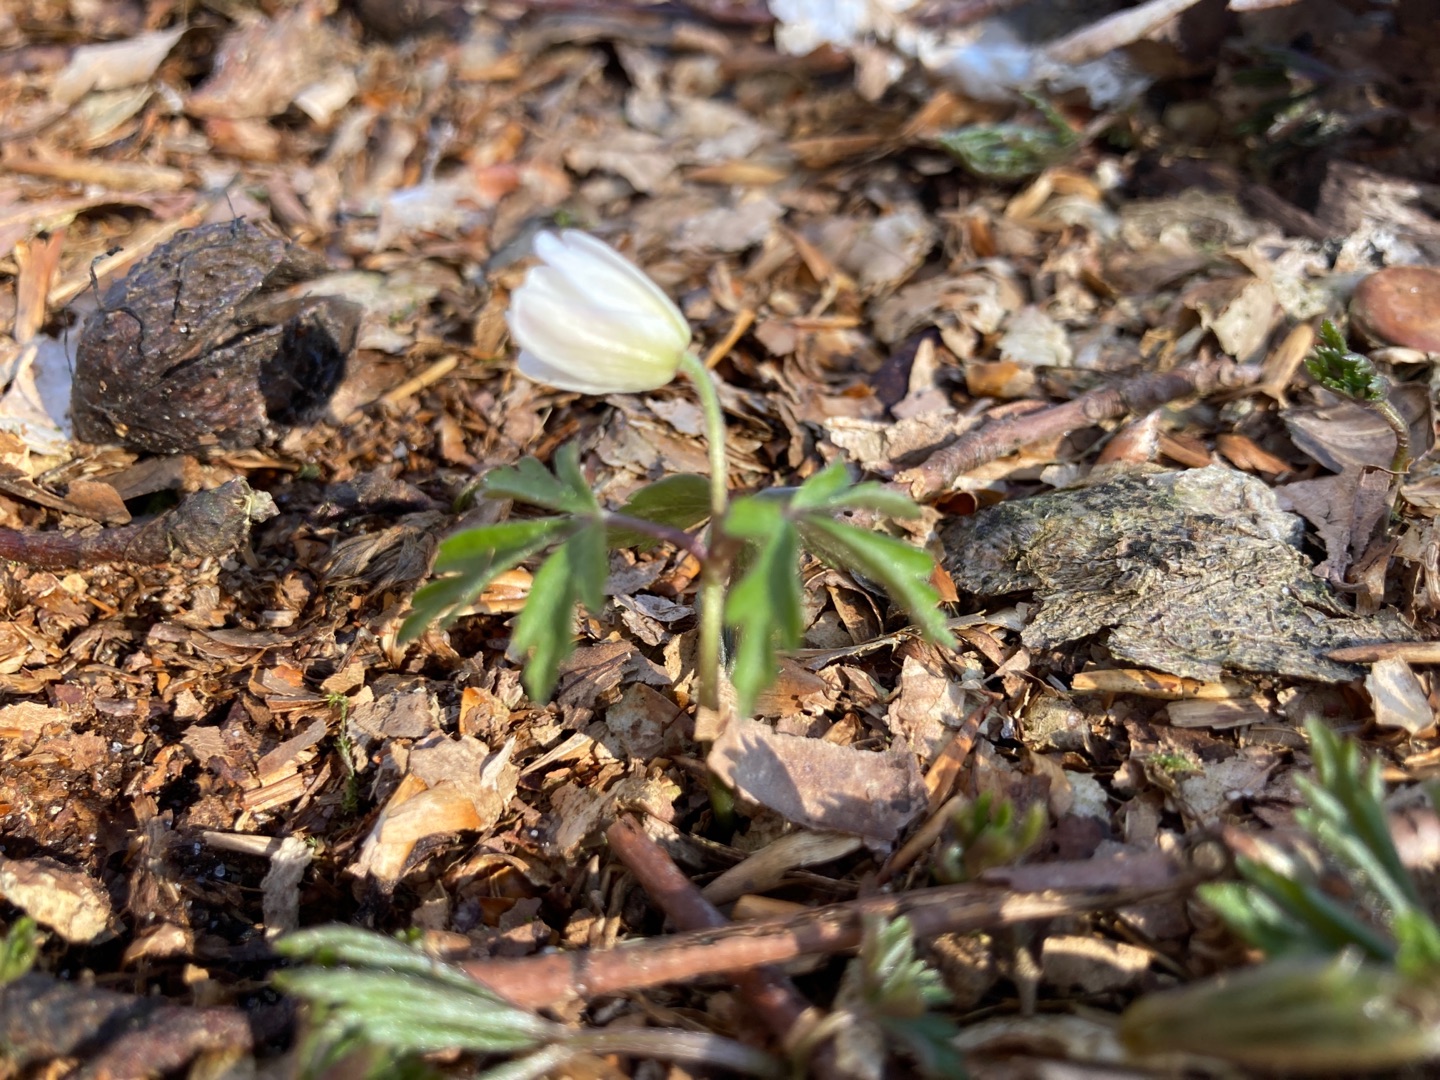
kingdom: Plantae
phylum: Tracheophyta
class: Magnoliopsida
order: Ranunculales
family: Ranunculaceae
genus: Anemone
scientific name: Anemone nemorosa
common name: Hvid anemone
